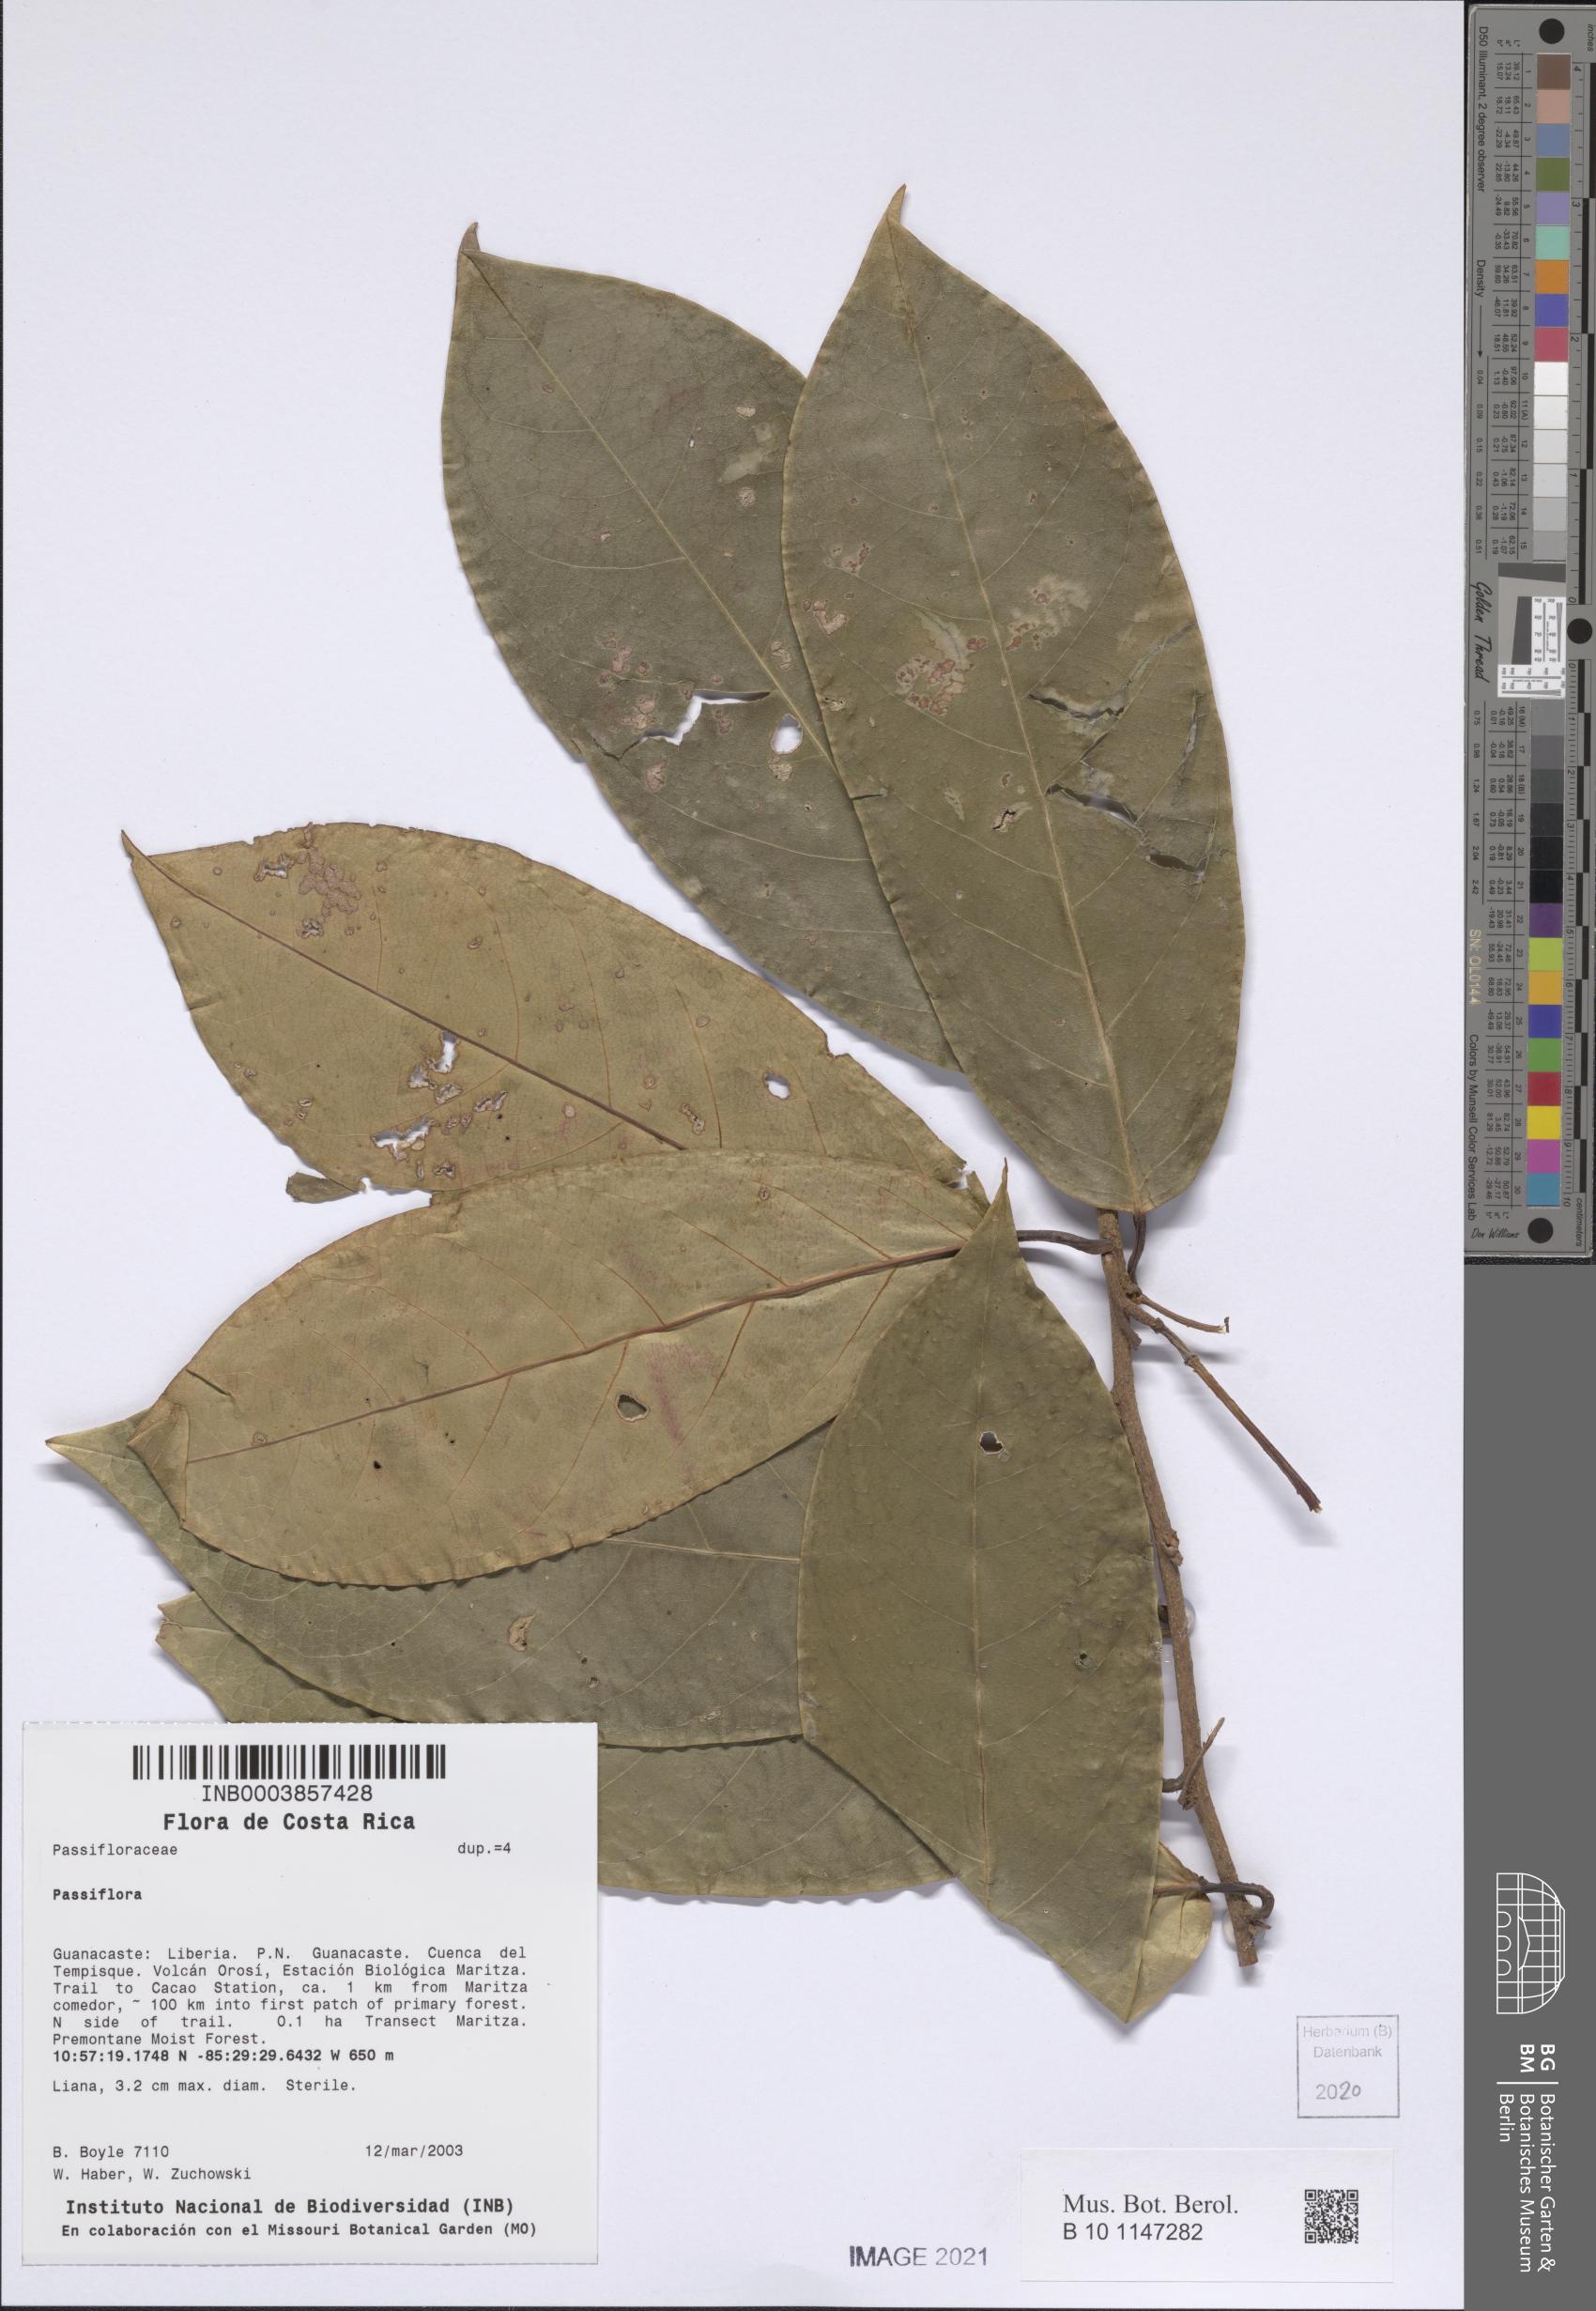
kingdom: Plantae
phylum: Tracheophyta
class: Magnoliopsida
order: Malpighiales
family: Passifloraceae
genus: Passiflora
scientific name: Passiflora
